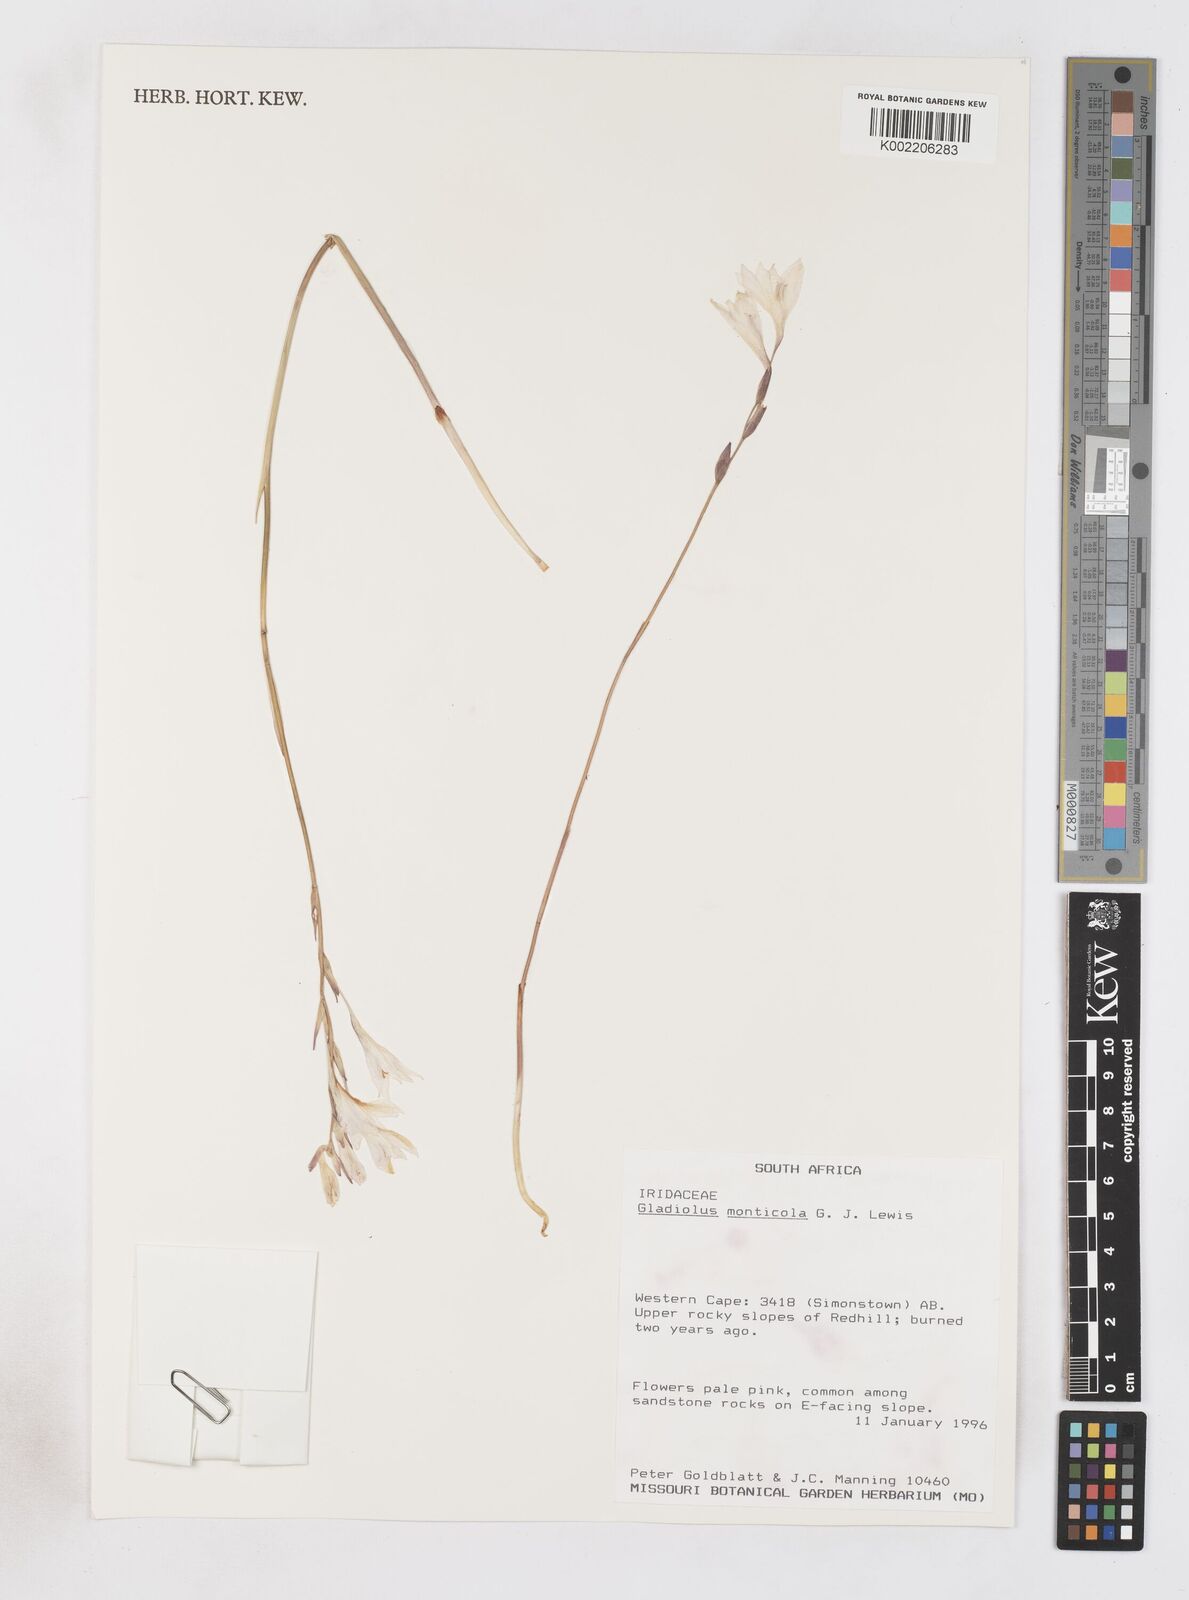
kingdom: Plantae
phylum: Tracheophyta
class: Liliopsida
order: Asparagales
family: Iridaceae
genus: Gladiolus
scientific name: Gladiolus
